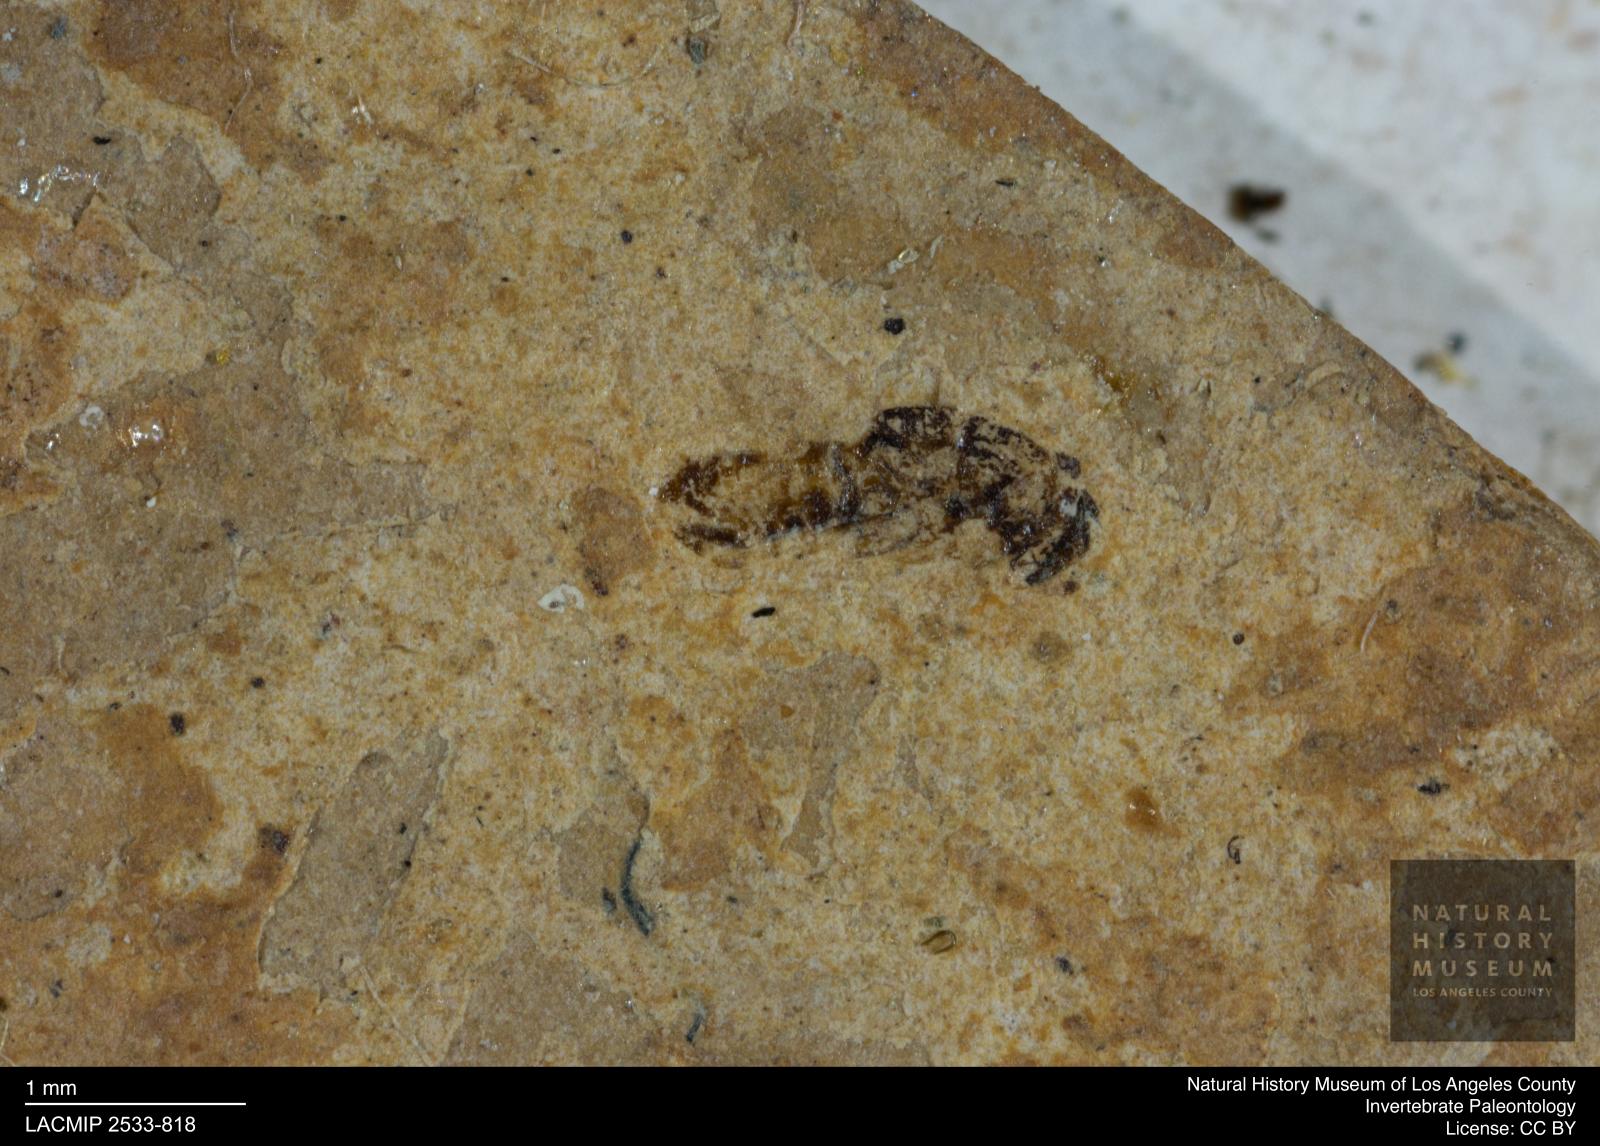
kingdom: Animalia
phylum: Arthropoda
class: Insecta
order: Hymenoptera
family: Eulophidae
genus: Eulophus
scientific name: Eulophus elegantulus
